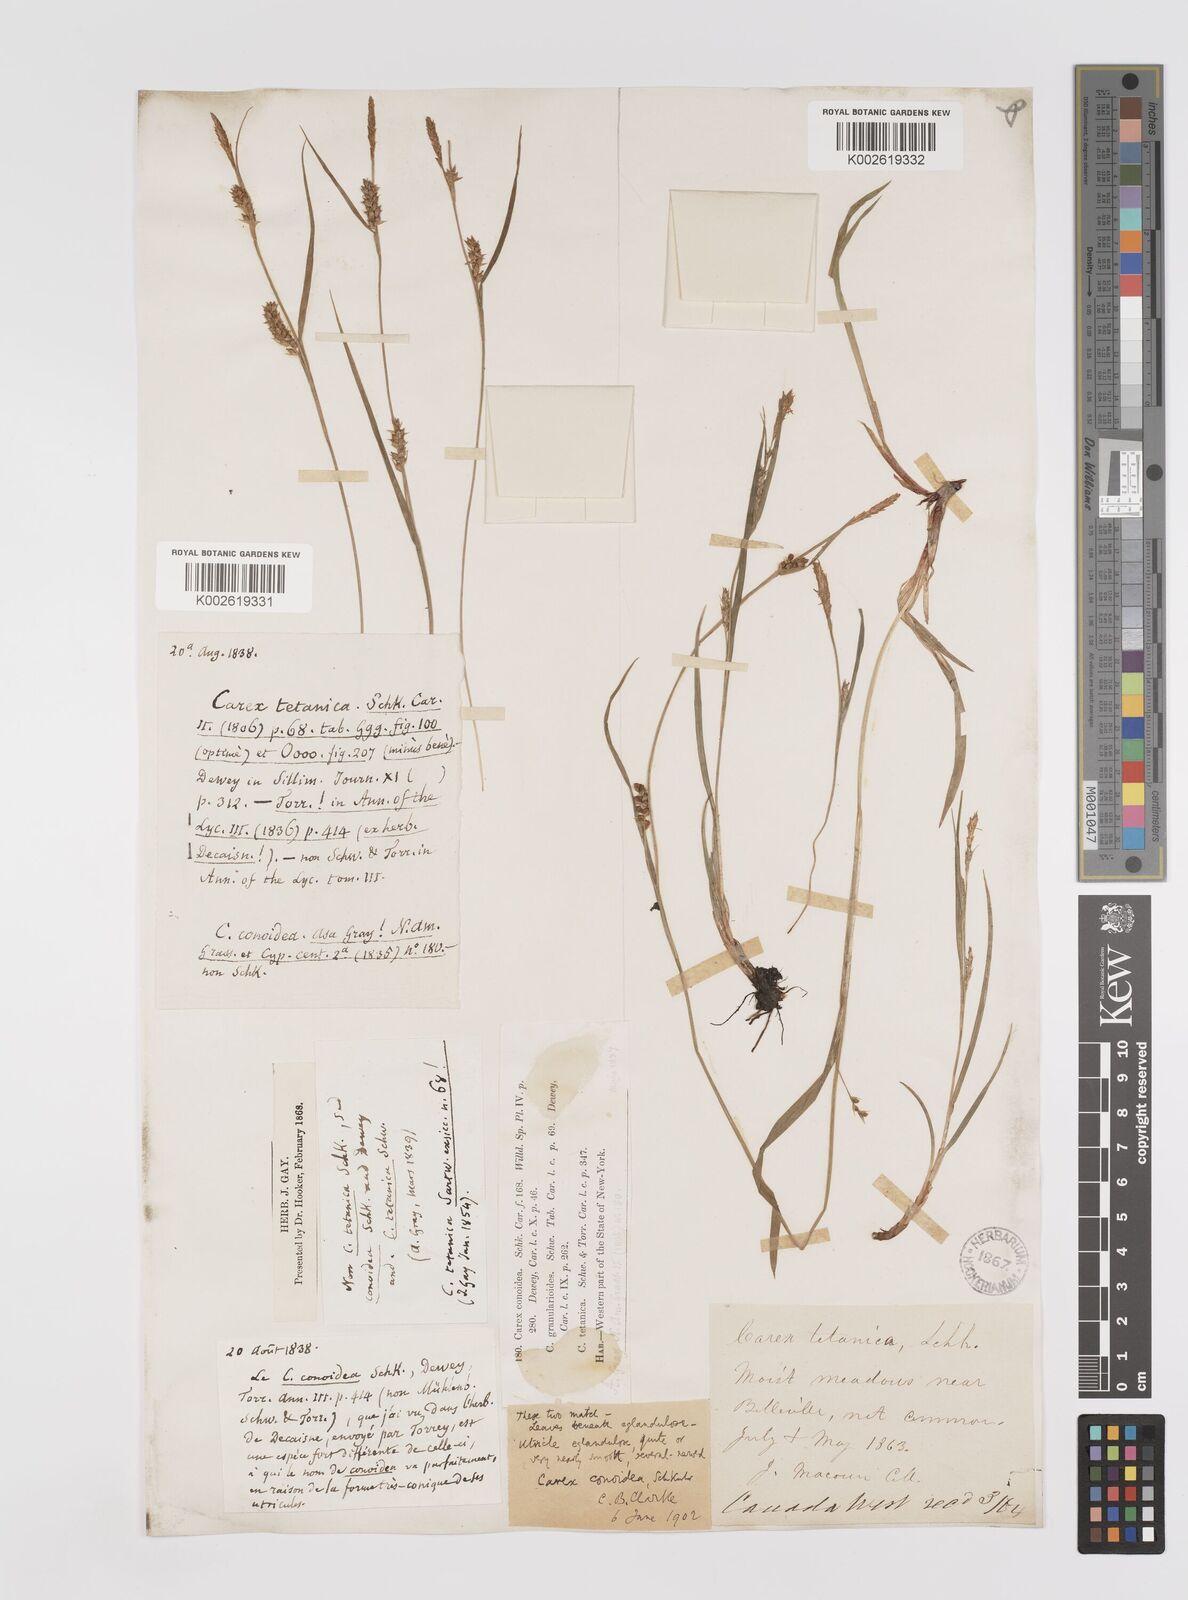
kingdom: Plantae
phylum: Tracheophyta
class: Liliopsida
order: Poales
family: Cyperaceae
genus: Carex
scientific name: Carex conoidea
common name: Cone shaped sedge
